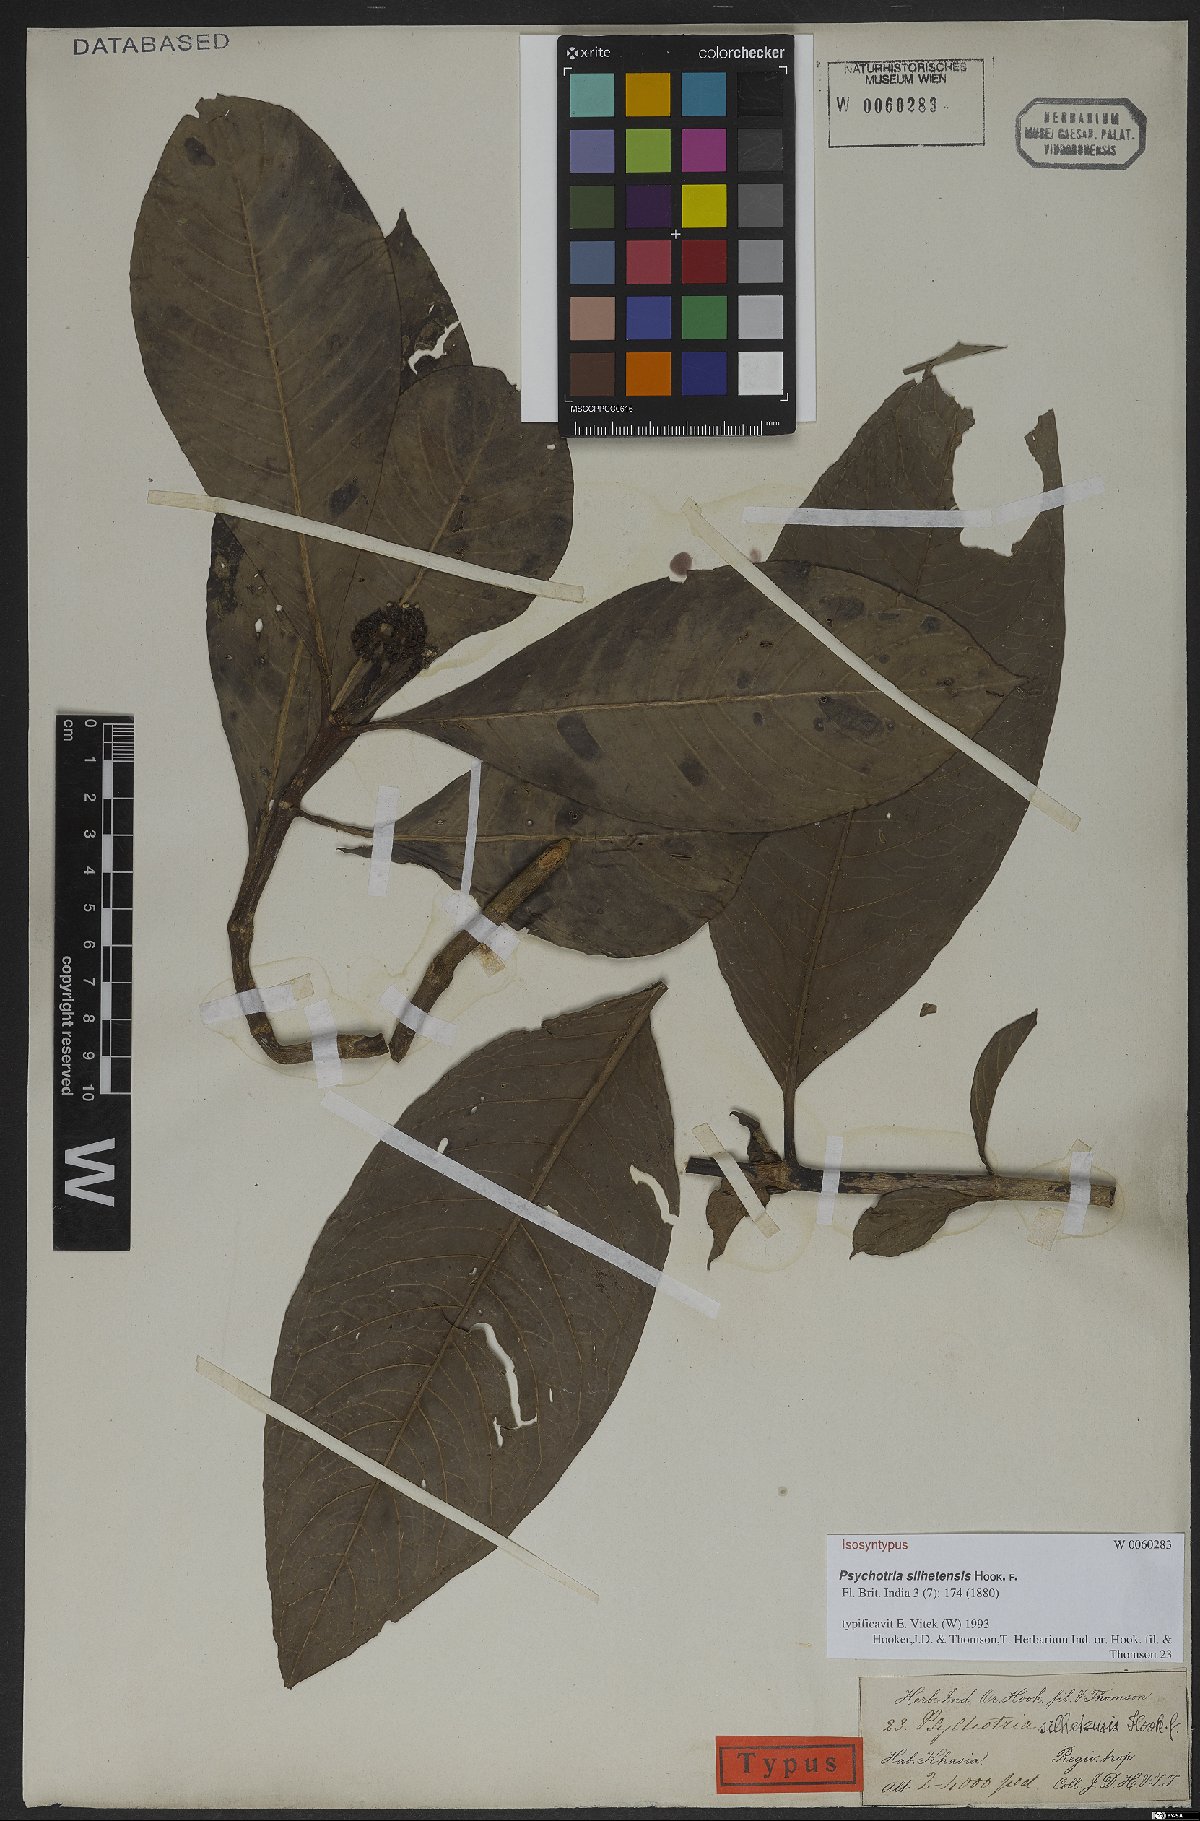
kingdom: Plantae
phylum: Tracheophyta
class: Magnoliopsida
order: Gentianales
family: Rubiaceae
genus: Psychotria
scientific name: Psychotria silhetensis
